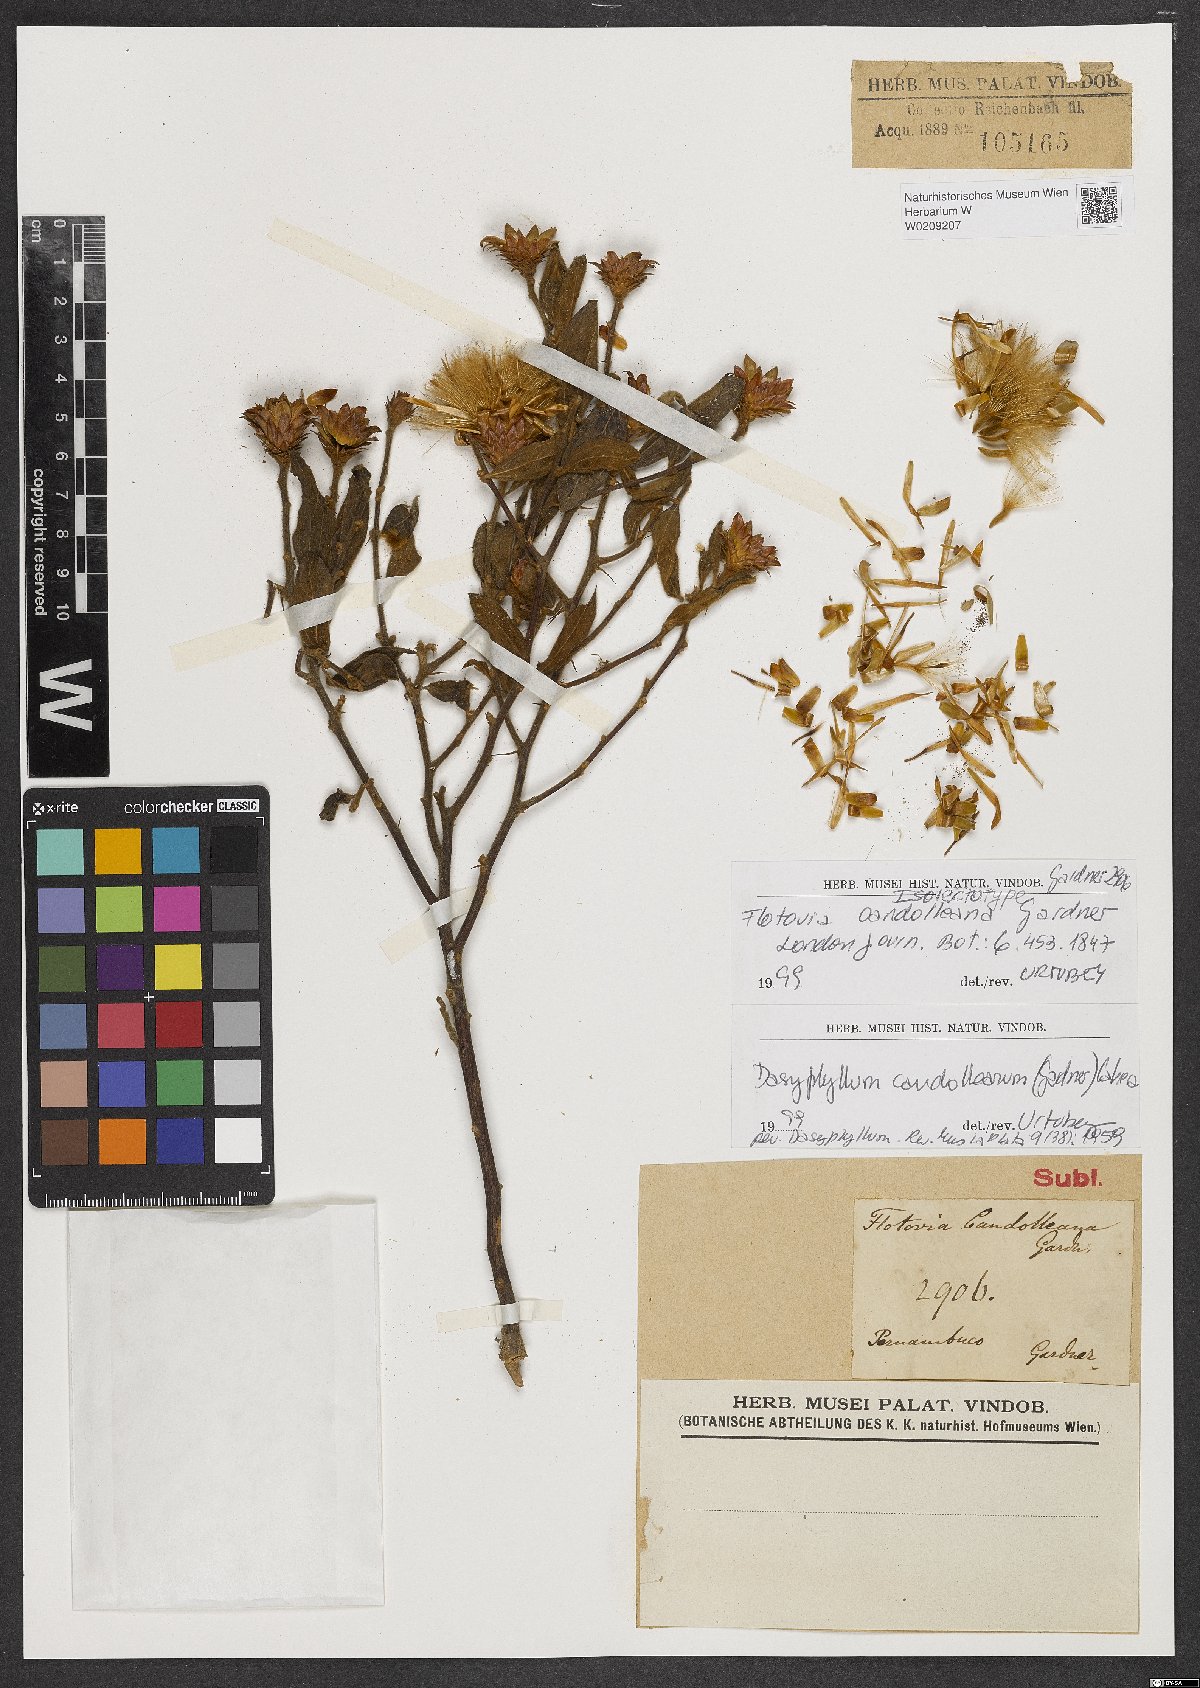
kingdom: Plantae
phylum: Tracheophyta
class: Magnoliopsida
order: Asterales
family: Asteraceae
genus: Dasyphyllum
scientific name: Dasyphyllum candolleanum
